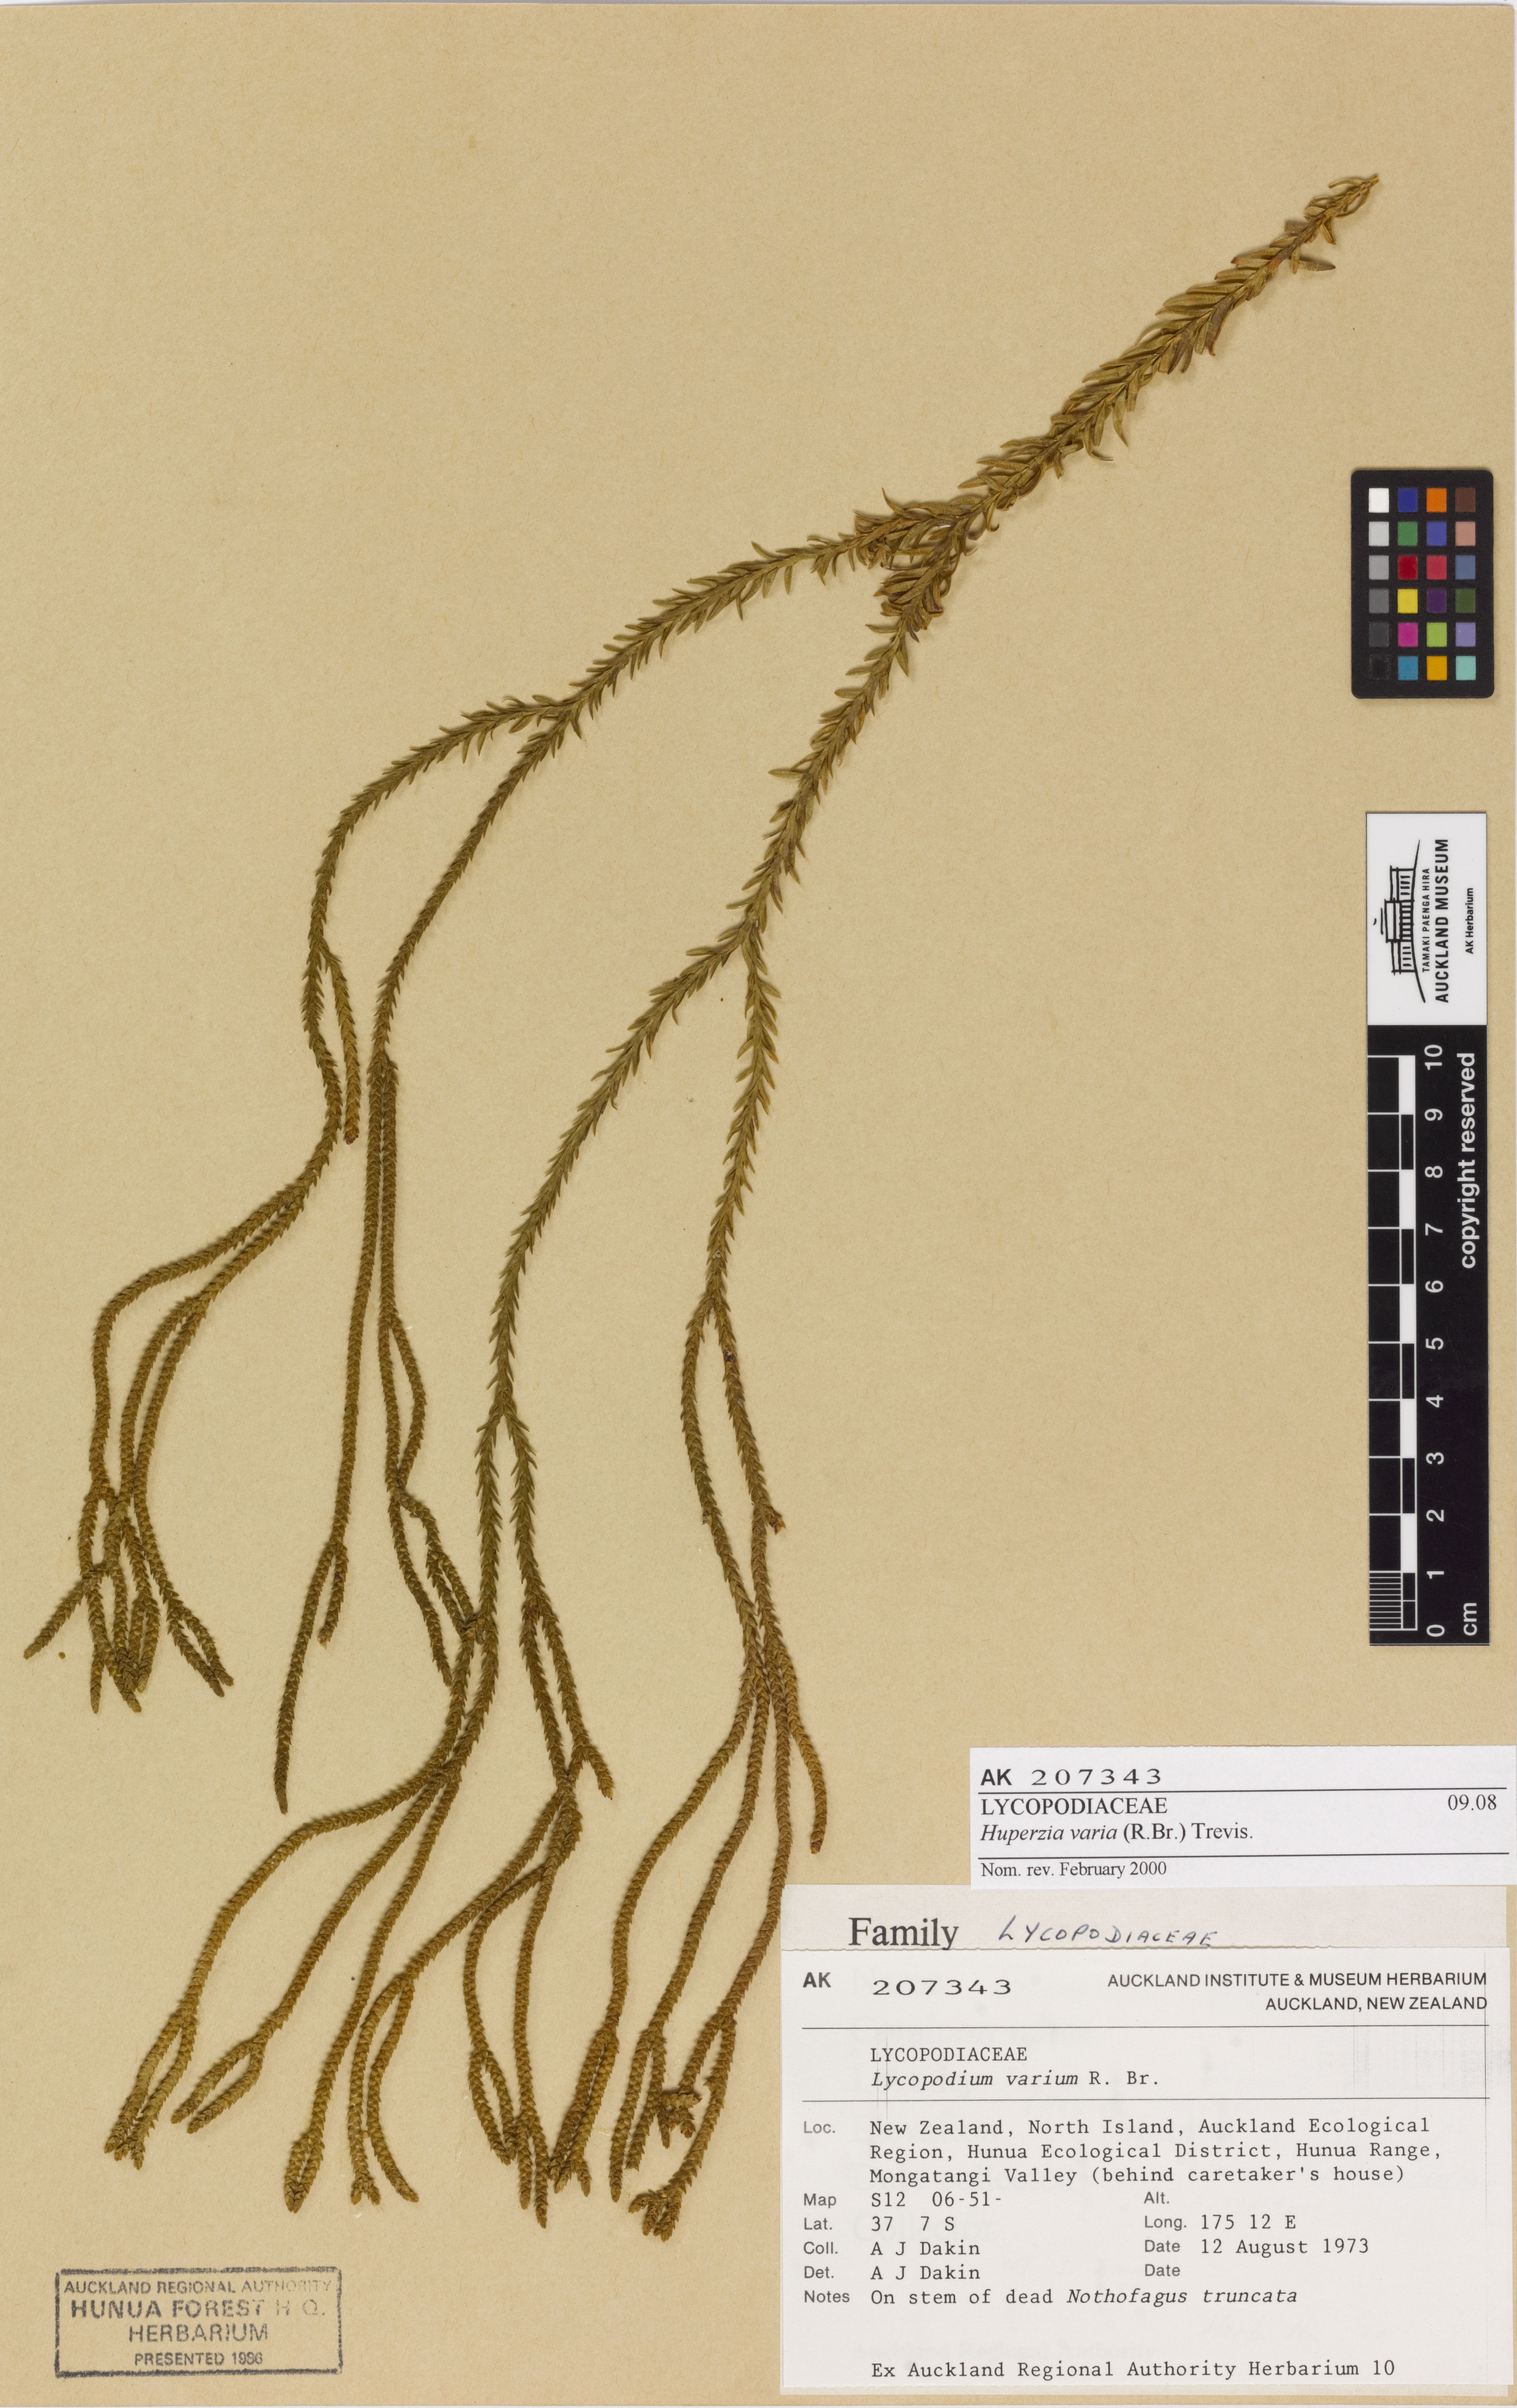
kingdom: Plantae
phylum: Tracheophyta
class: Lycopodiopsida
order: Lycopodiales
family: Lycopodiaceae
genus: Phlegmariurus
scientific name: Phlegmariurus billardierei
